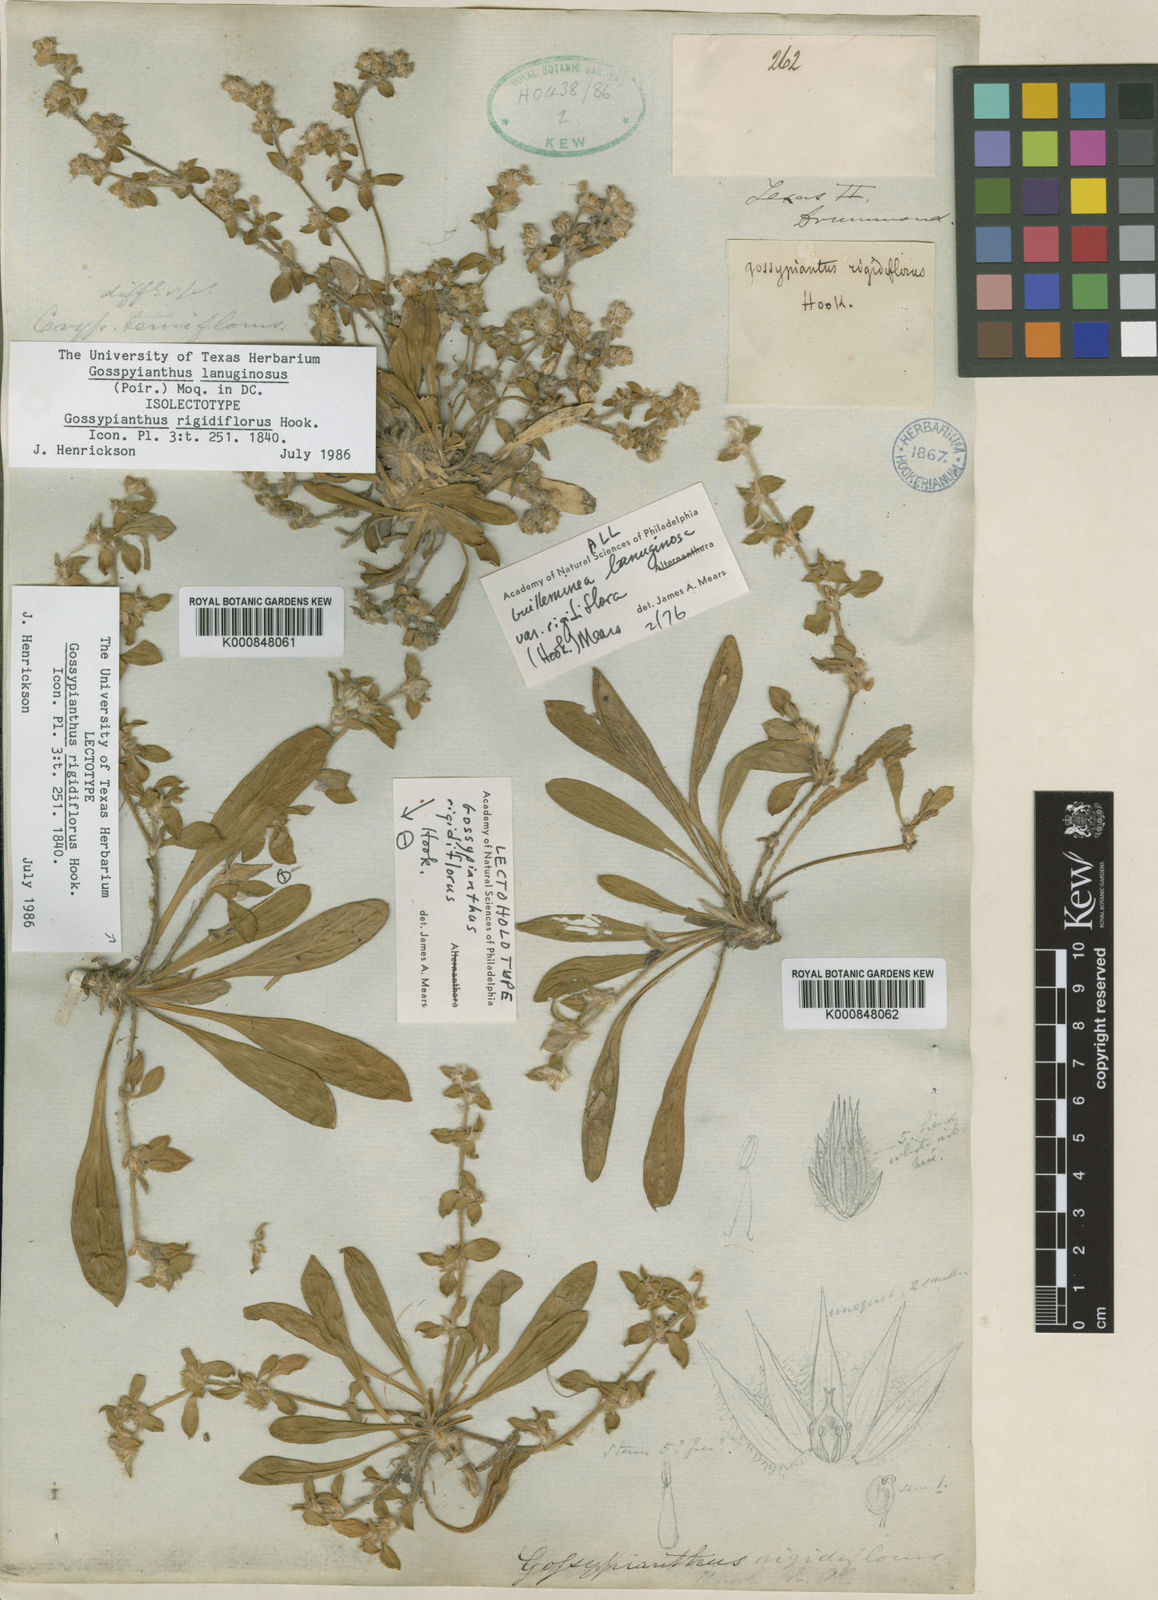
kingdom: Plantae
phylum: Tracheophyta
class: Magnoliopsida
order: Caryophyllales
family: Amaranthaceae
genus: Gomphrena
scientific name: Gomphrena lanuparonychioides
